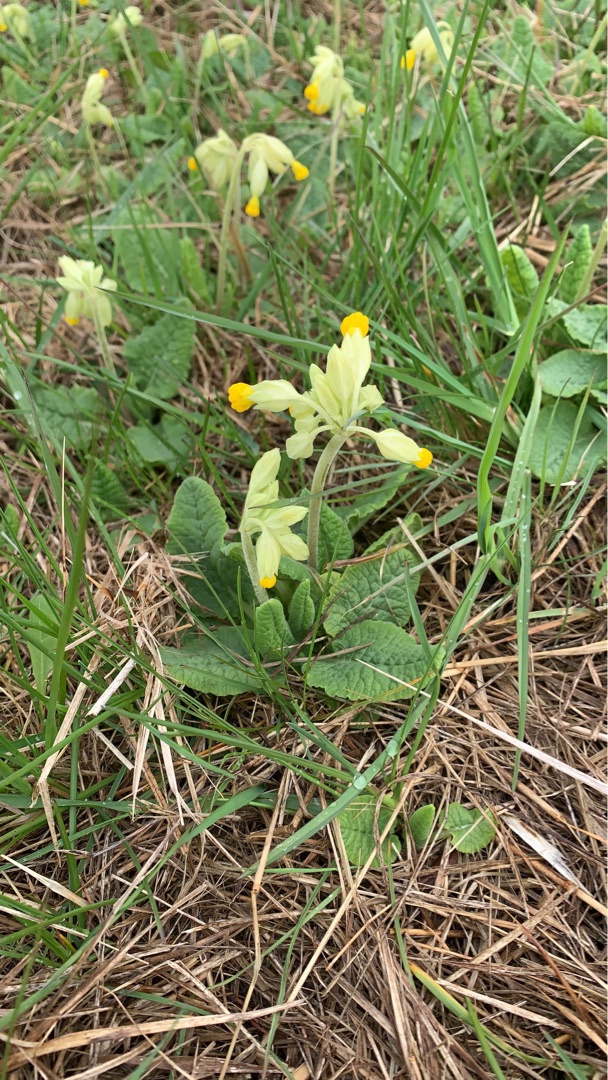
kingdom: Plantae
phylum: Tracheophyta
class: Magnoliopsida
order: Ericales
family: Primulaceae
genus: Primula
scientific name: Primula veris
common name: Hulkravet kodriver
